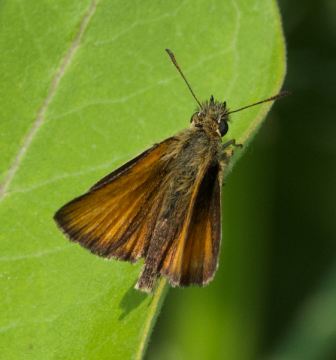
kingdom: Animalia
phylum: Arthropoda
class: Insecta
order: Lepidoptera
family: Hesperiidae
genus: Thymelicus
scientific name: Thymelicus lineola
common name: European Skipper
